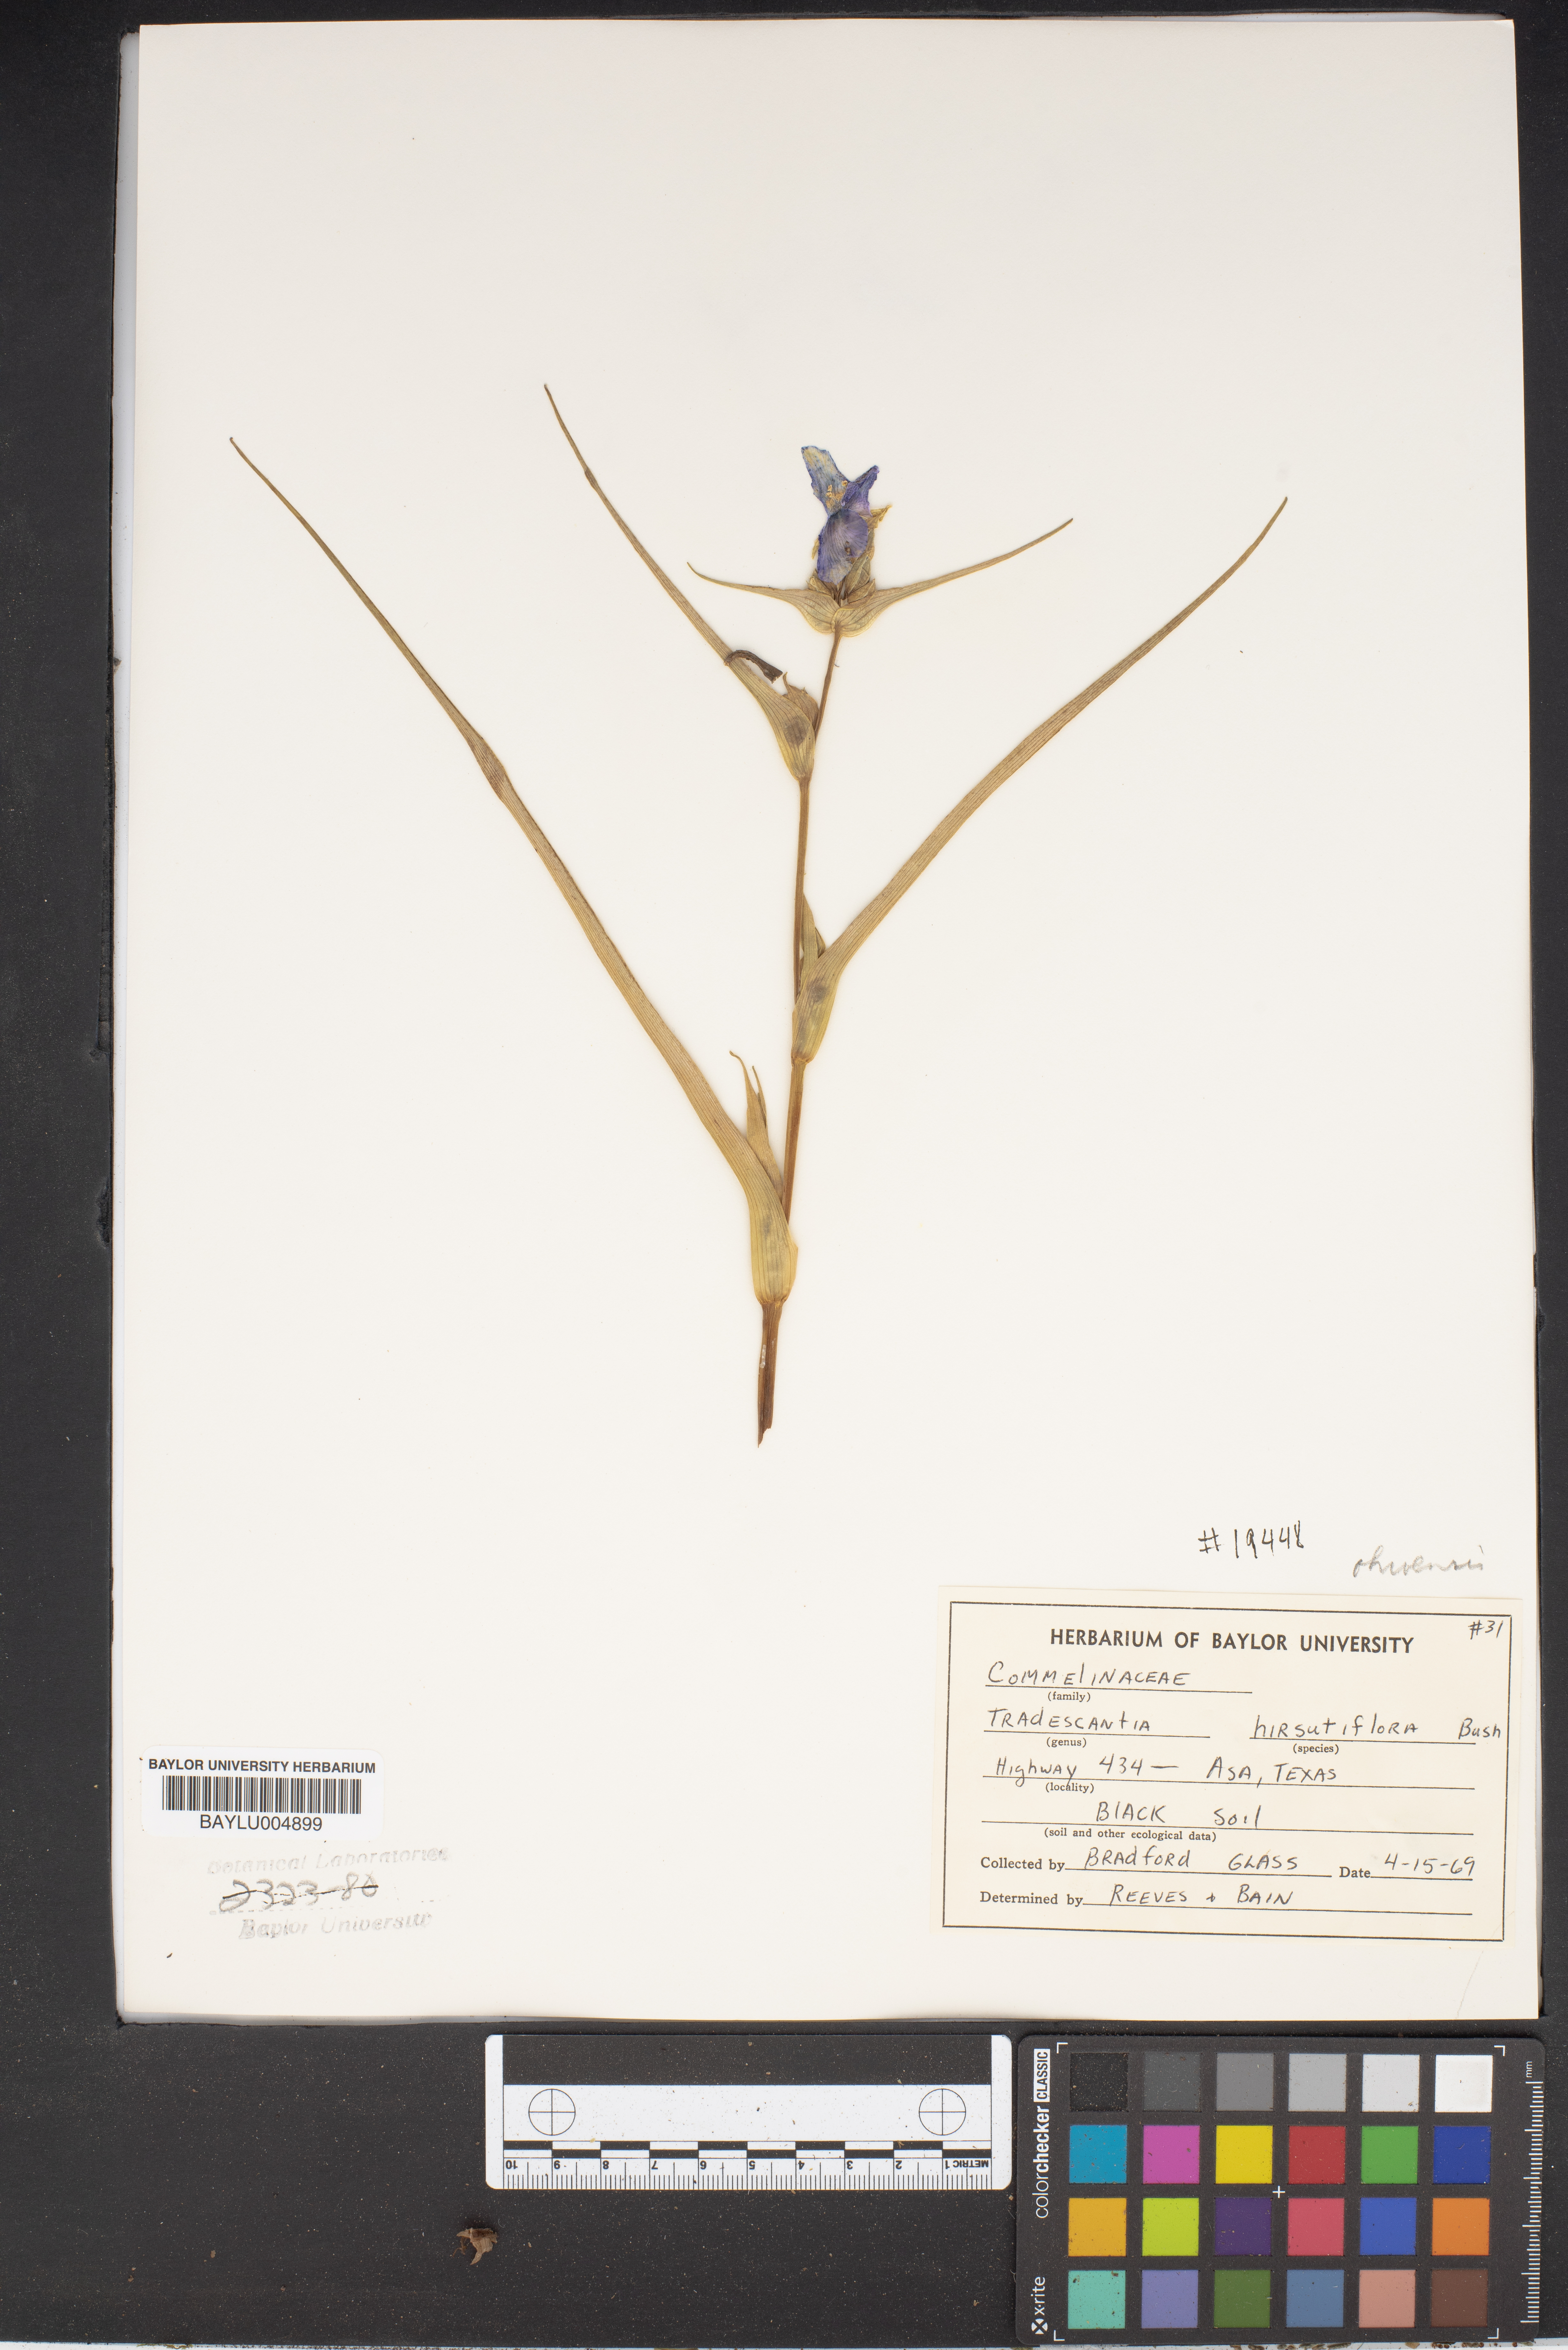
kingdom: Plantae
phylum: Tracheophyta
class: Liliopsida
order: Commelinales
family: Commelinaceae
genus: Tradescantia
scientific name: Tradescantia hirsutiflora
